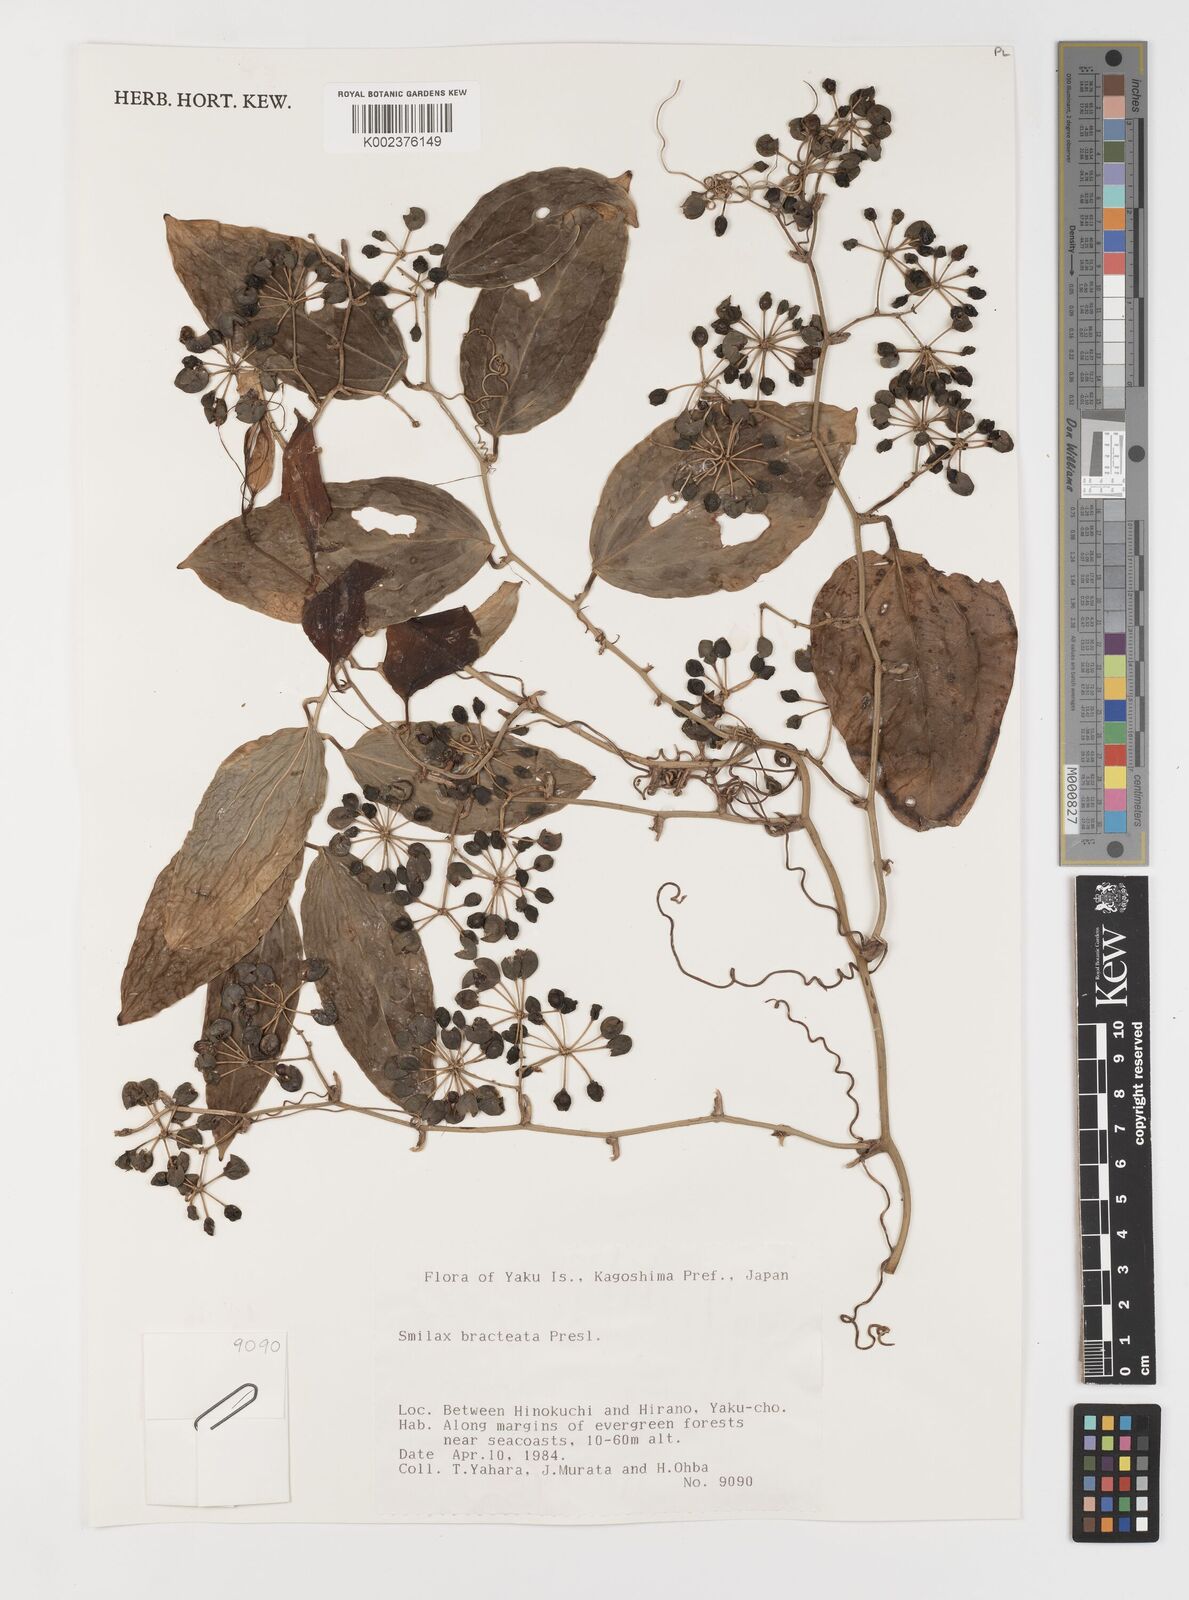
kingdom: Plantae
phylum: Tracheophyta
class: Liliopsida
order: Liliales
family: Smilacaceae
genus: Smilax
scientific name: Smilax bracteata
